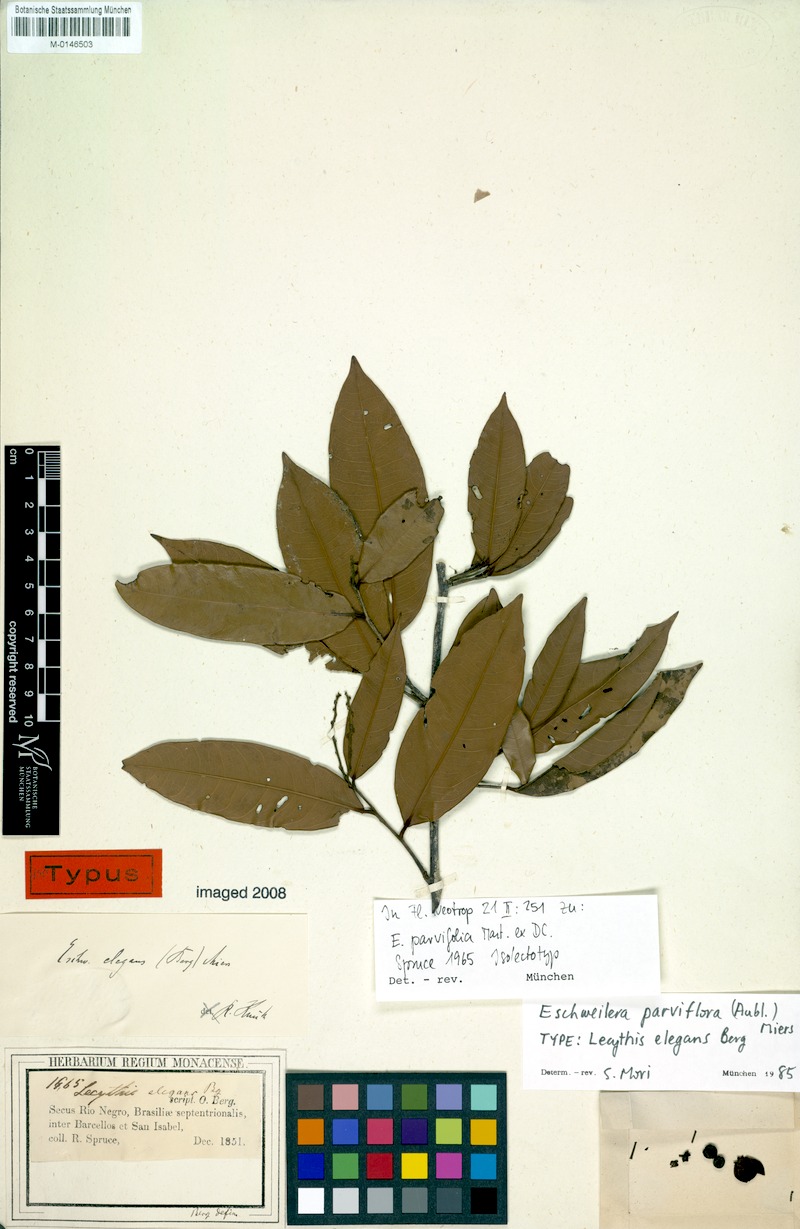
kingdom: Plantae
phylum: Tracheophyta
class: Magnoliopsida
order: Ericales
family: Lecythidaceae
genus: Eschweilera
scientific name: Eschweilera parvifolia
